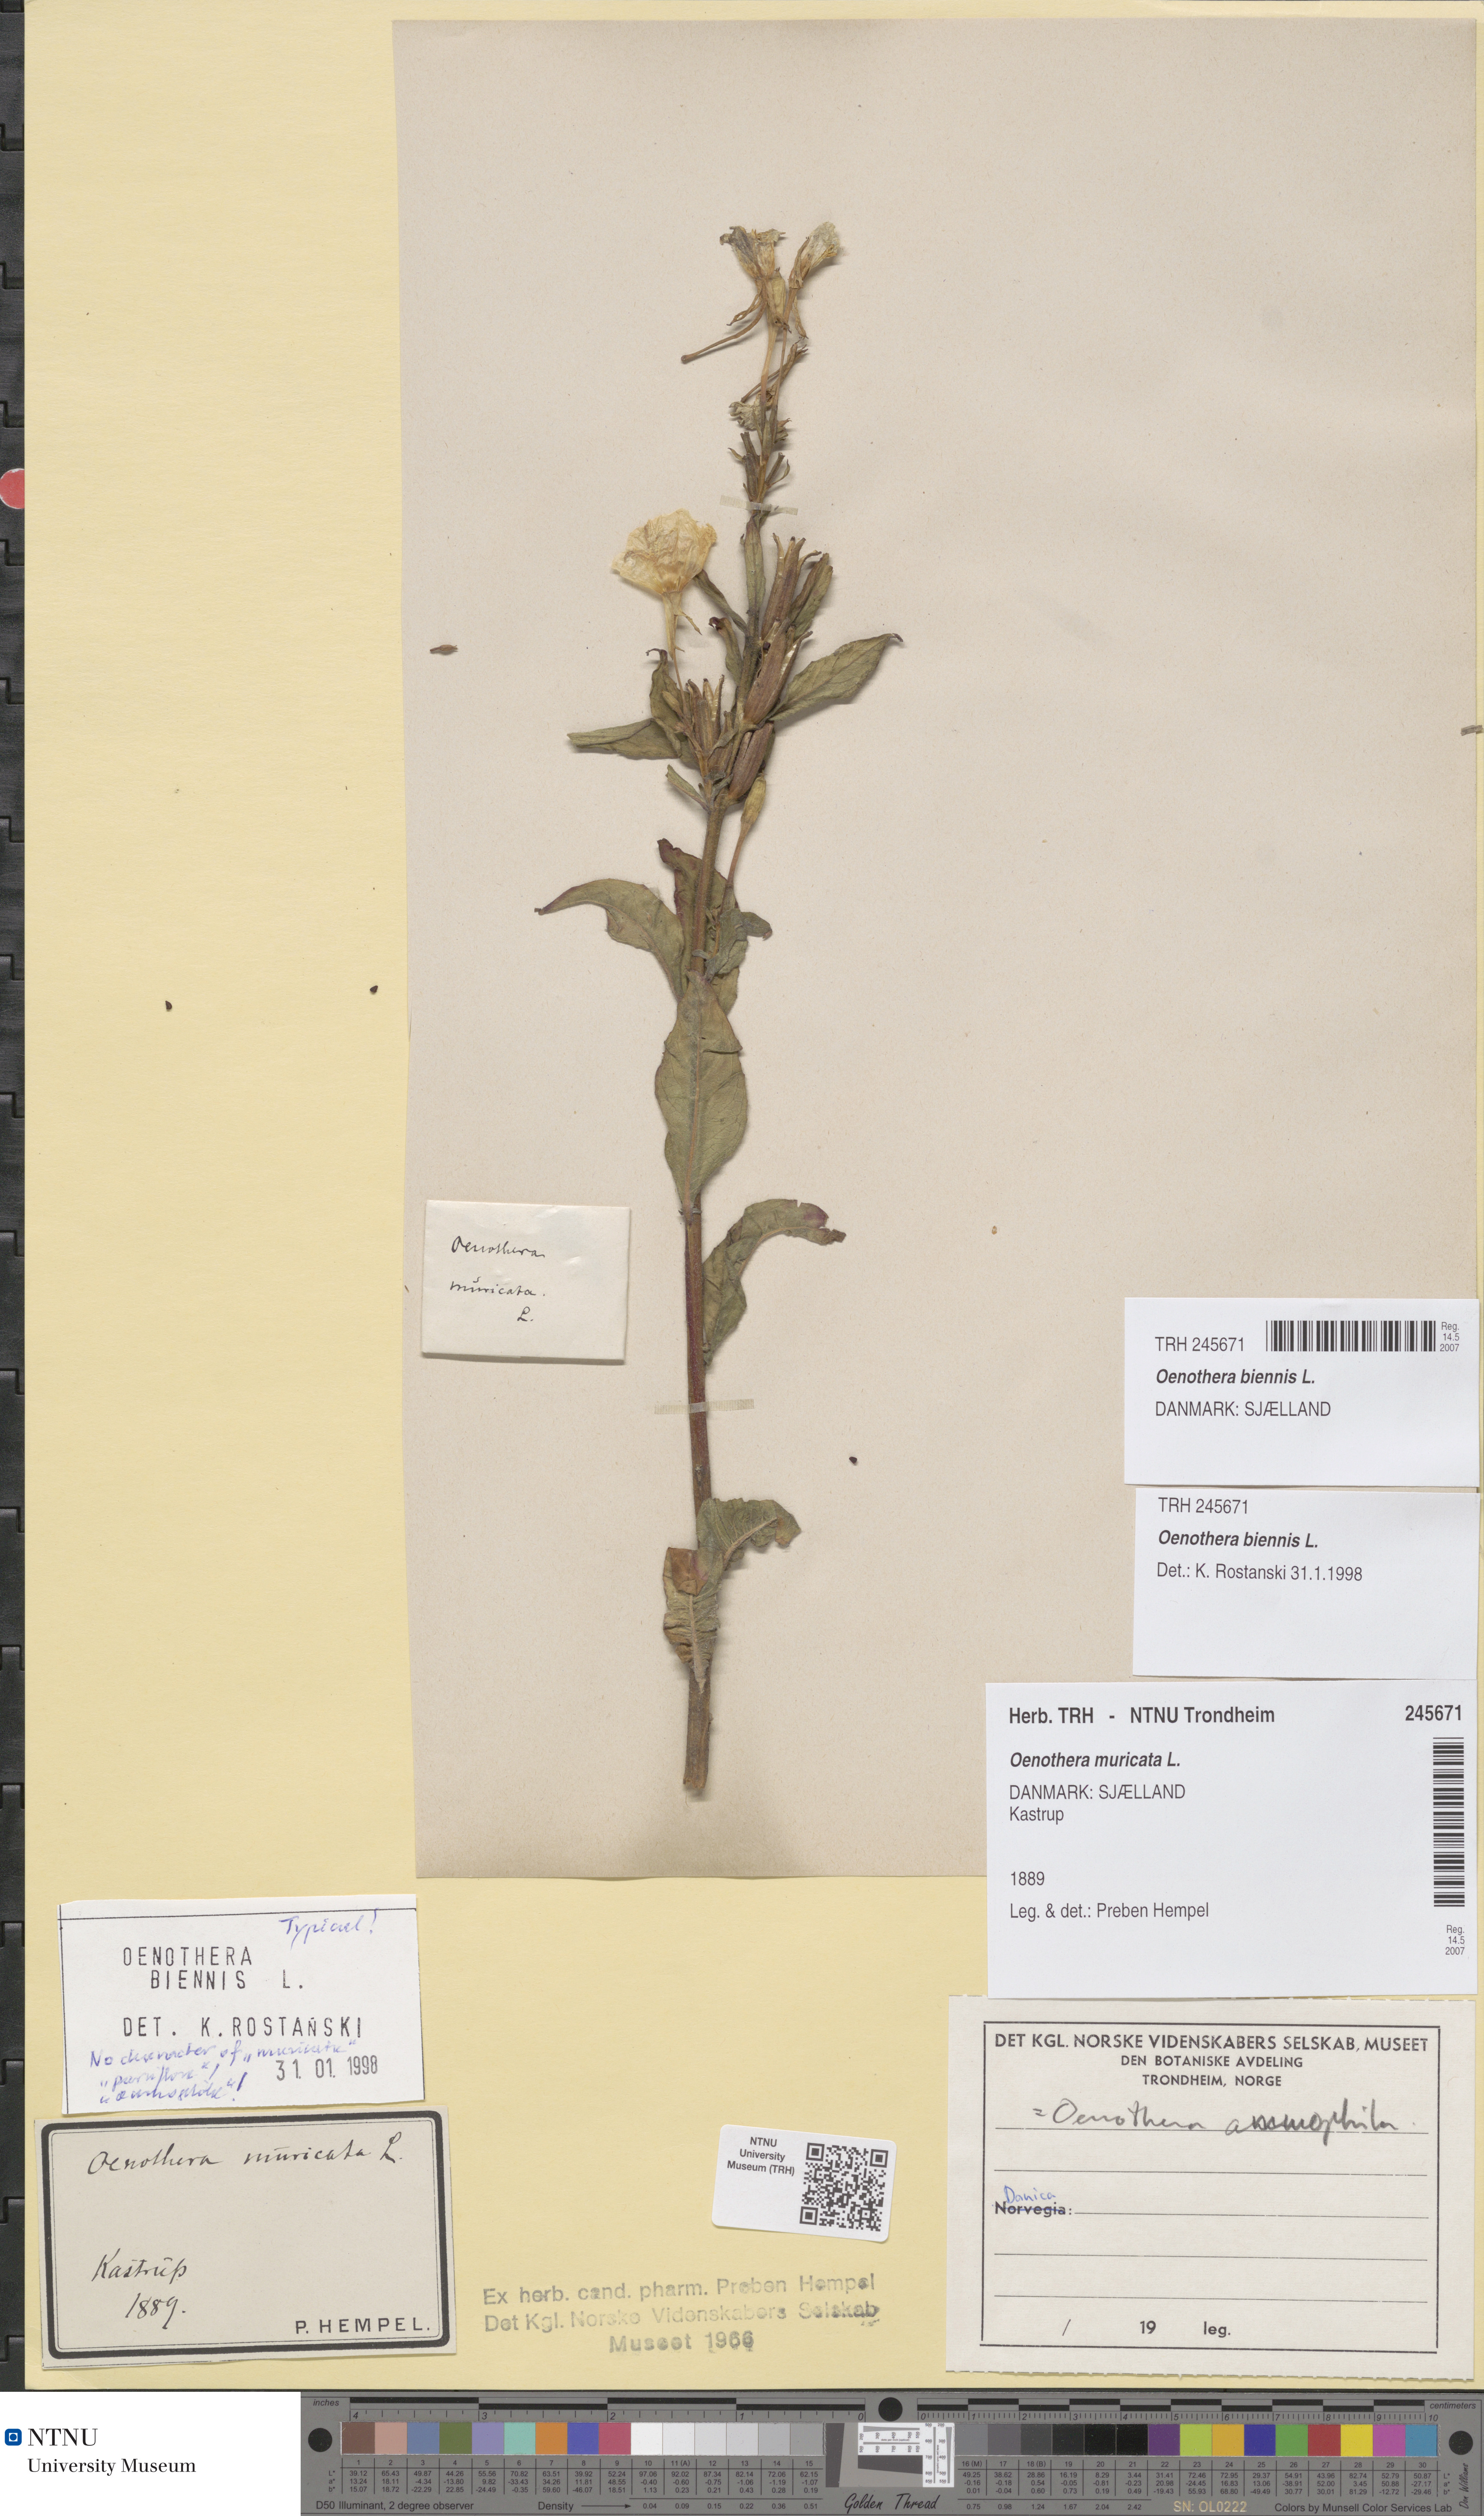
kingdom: Plantae
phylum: Tracheophyta
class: Magnoliopsida
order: Myrtales
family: Onagraceae
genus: Oenothera
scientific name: Oenothera biennis
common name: Common evening-primrose
